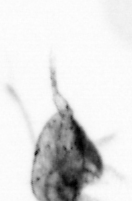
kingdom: Animalia
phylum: Arthropoda
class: Copepoda
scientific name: Copepoda
